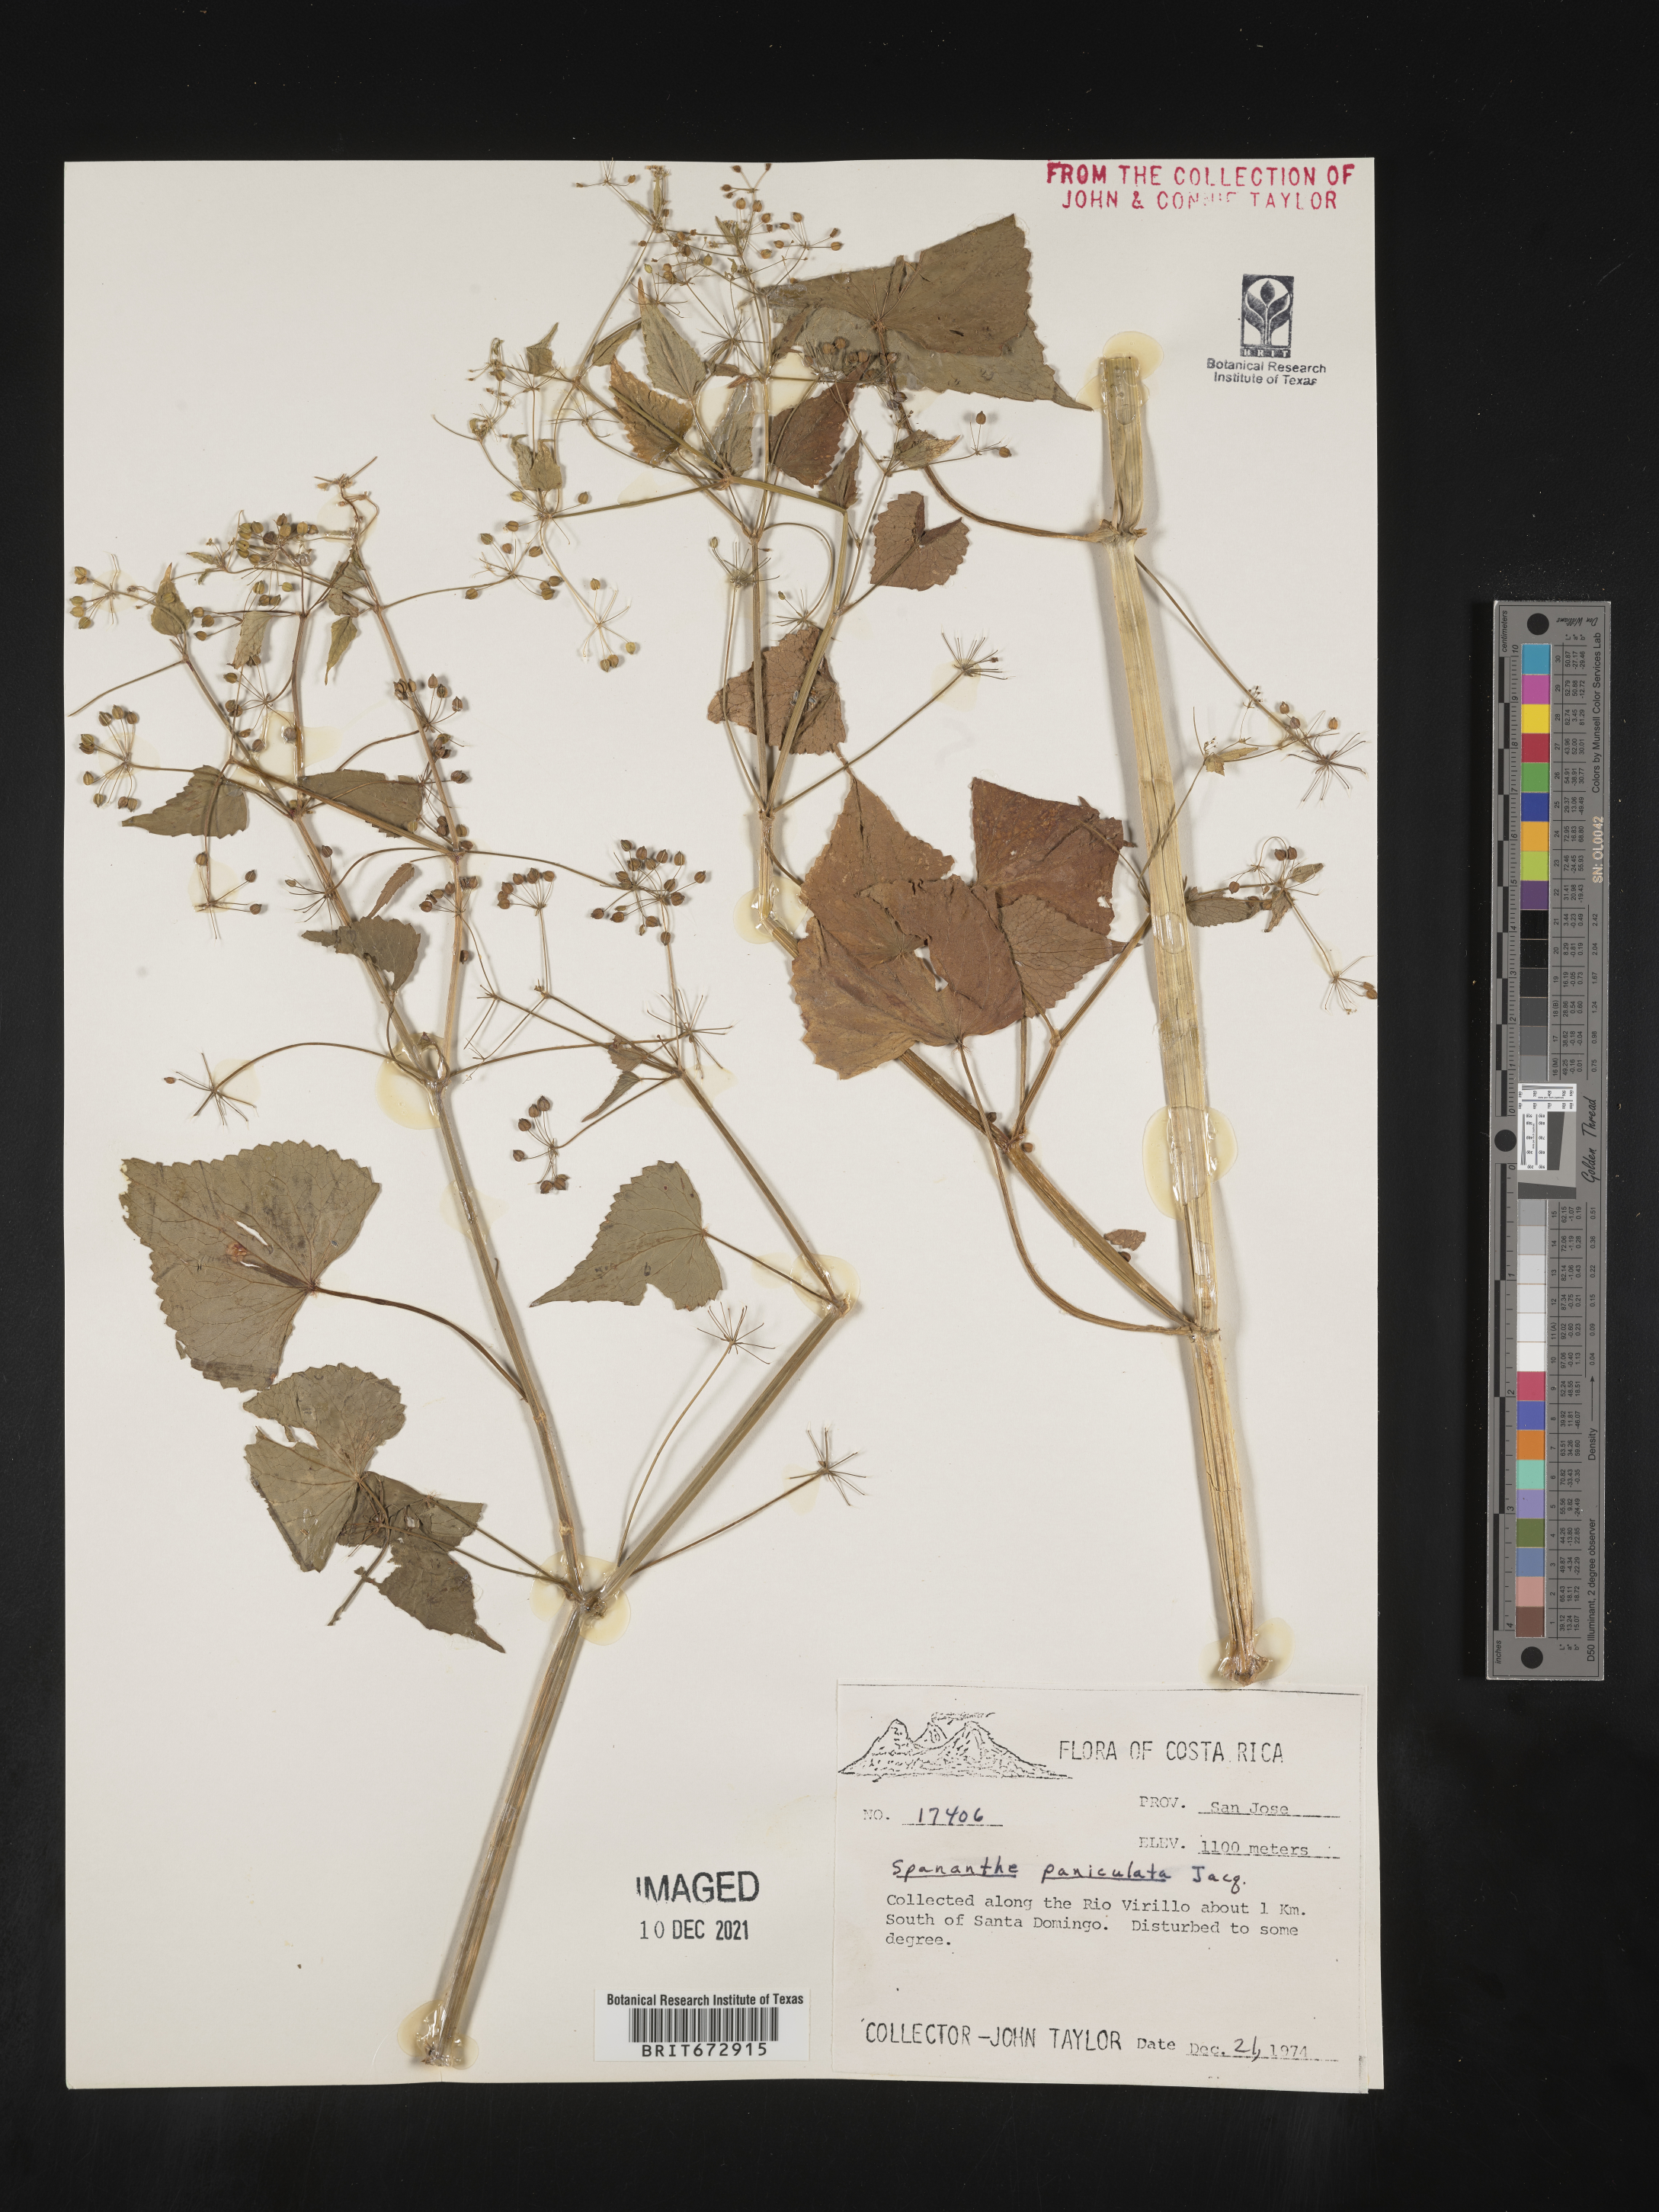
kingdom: Plantae
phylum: Tracheophyta
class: Magnoliopsida
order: Apiales
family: Apiaceae
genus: Spananthe
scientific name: Spananthe
